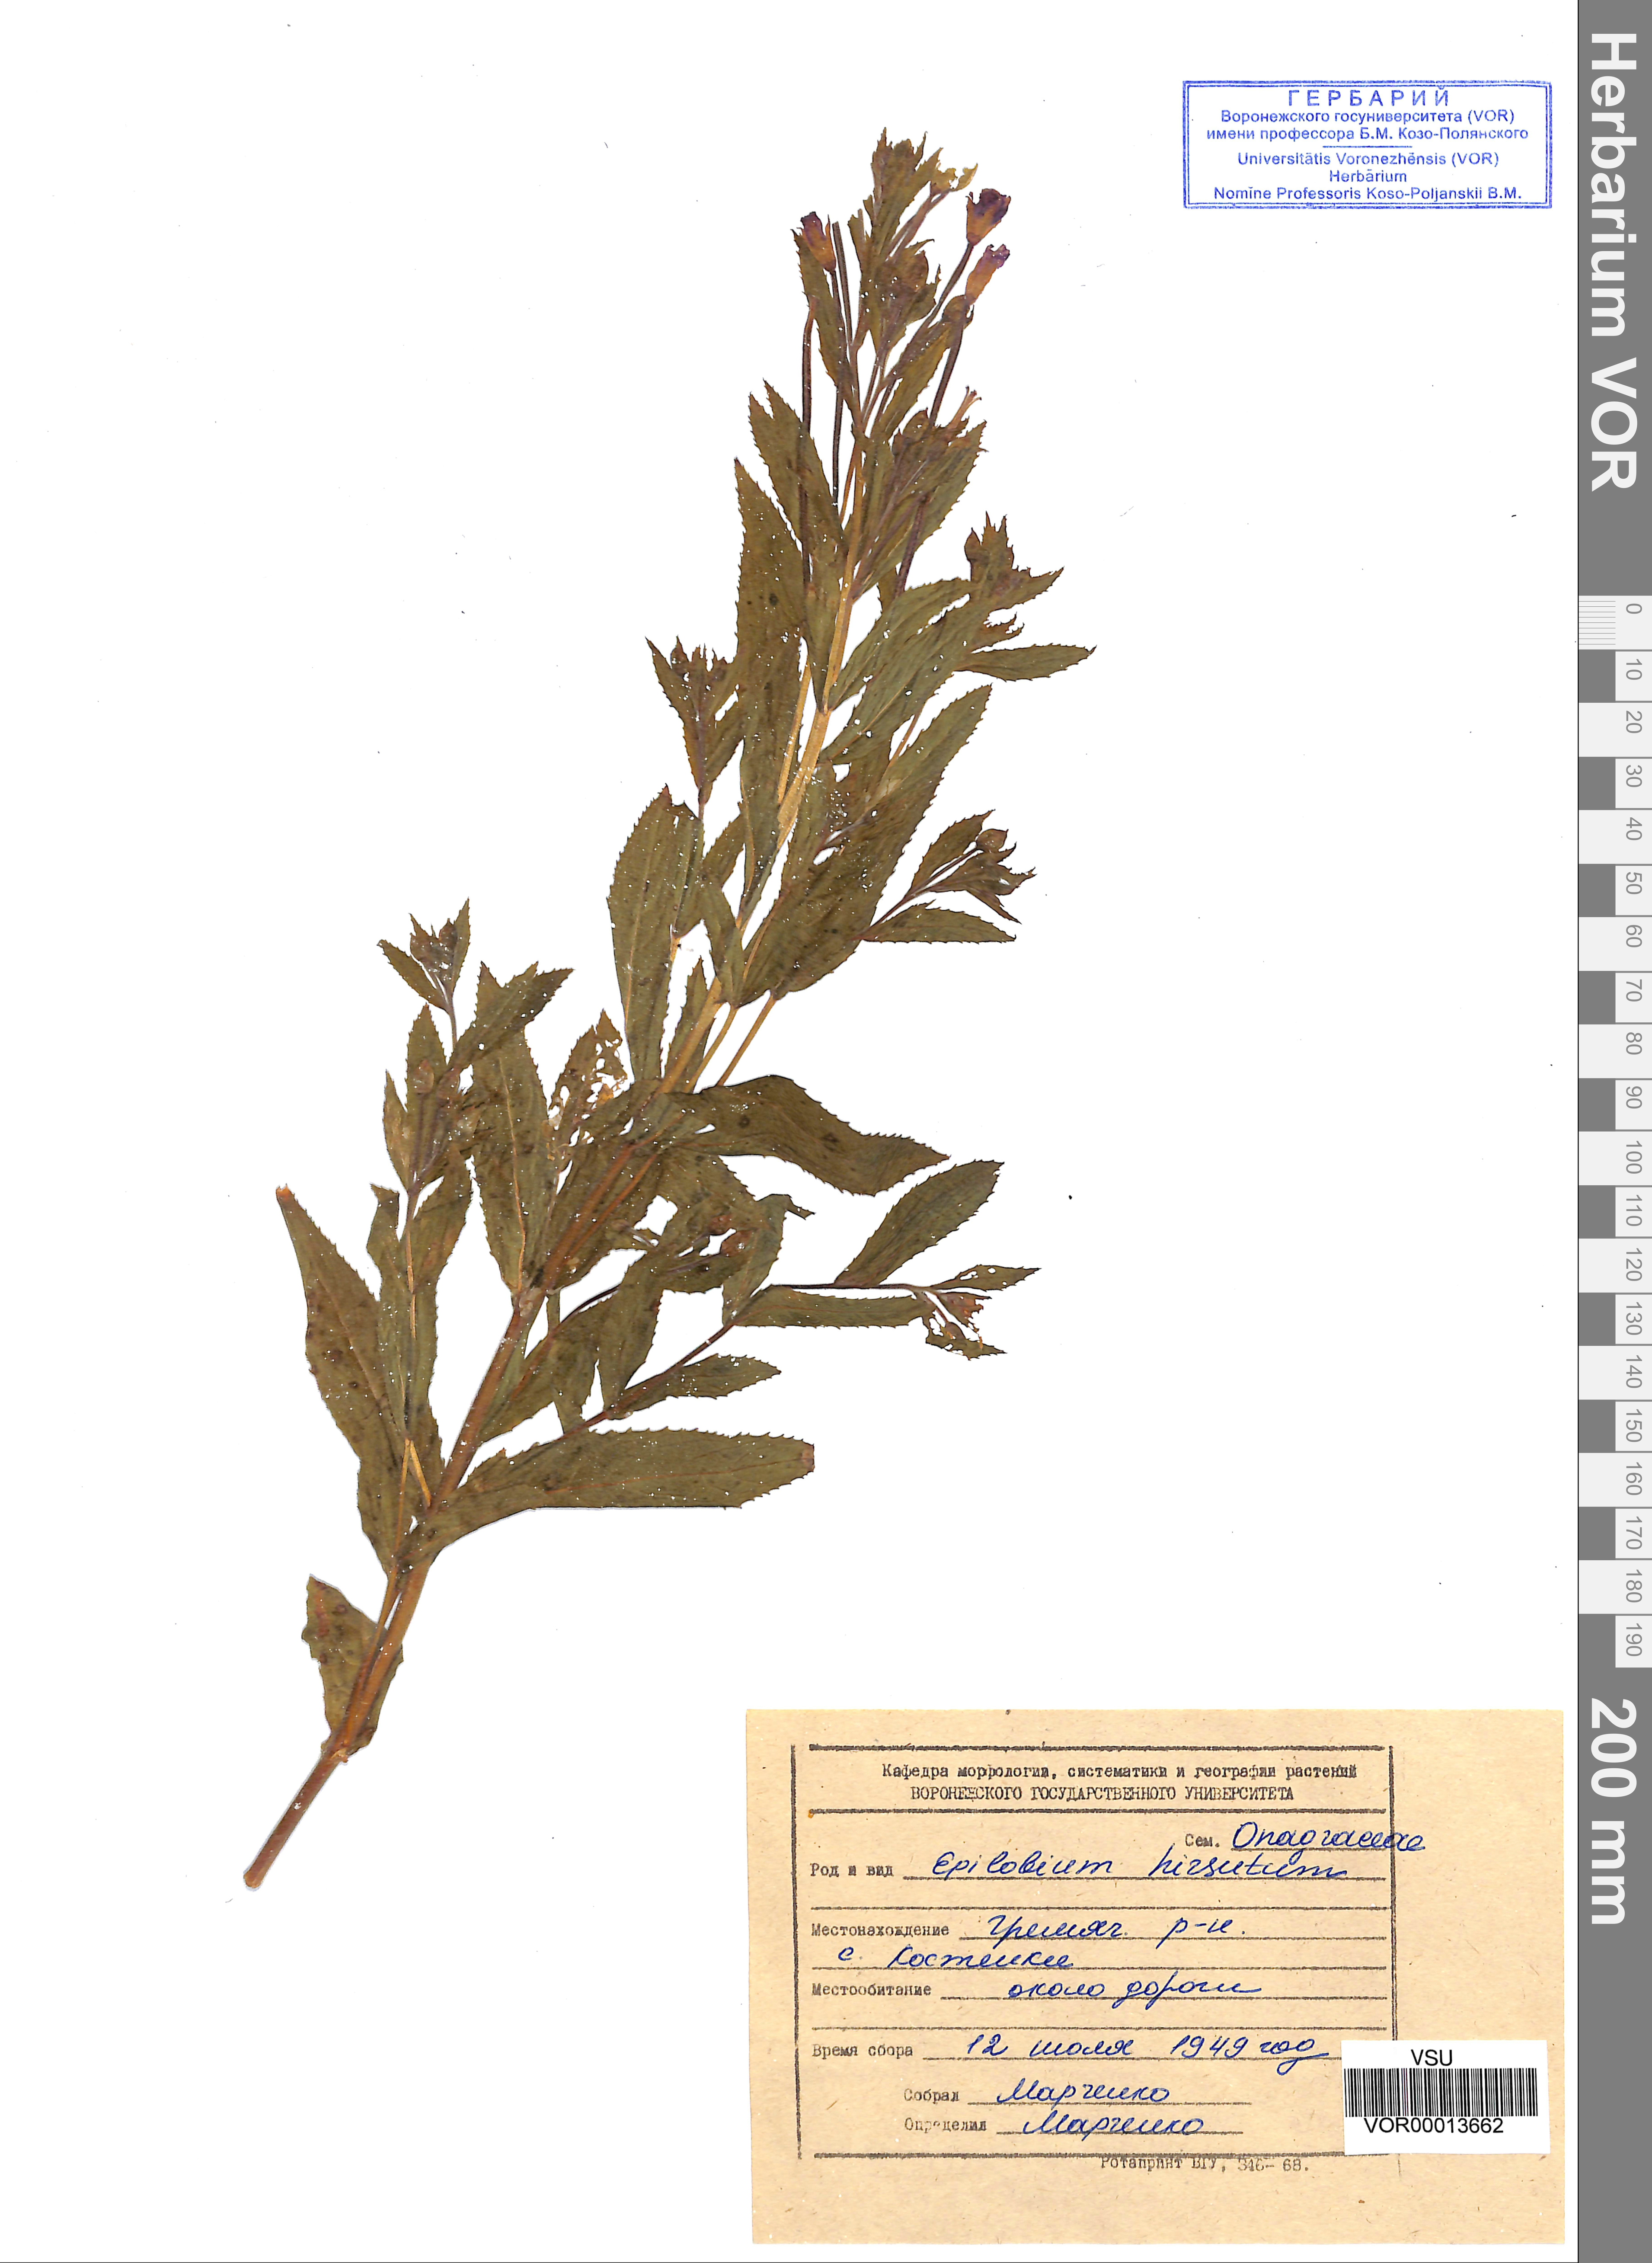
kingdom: Plantae
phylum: Tracheophyta
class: Magnoliopsida
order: Myrtales
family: Onagraceae
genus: Epilobium
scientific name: Epilobium hirsutum
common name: Great willowherb
